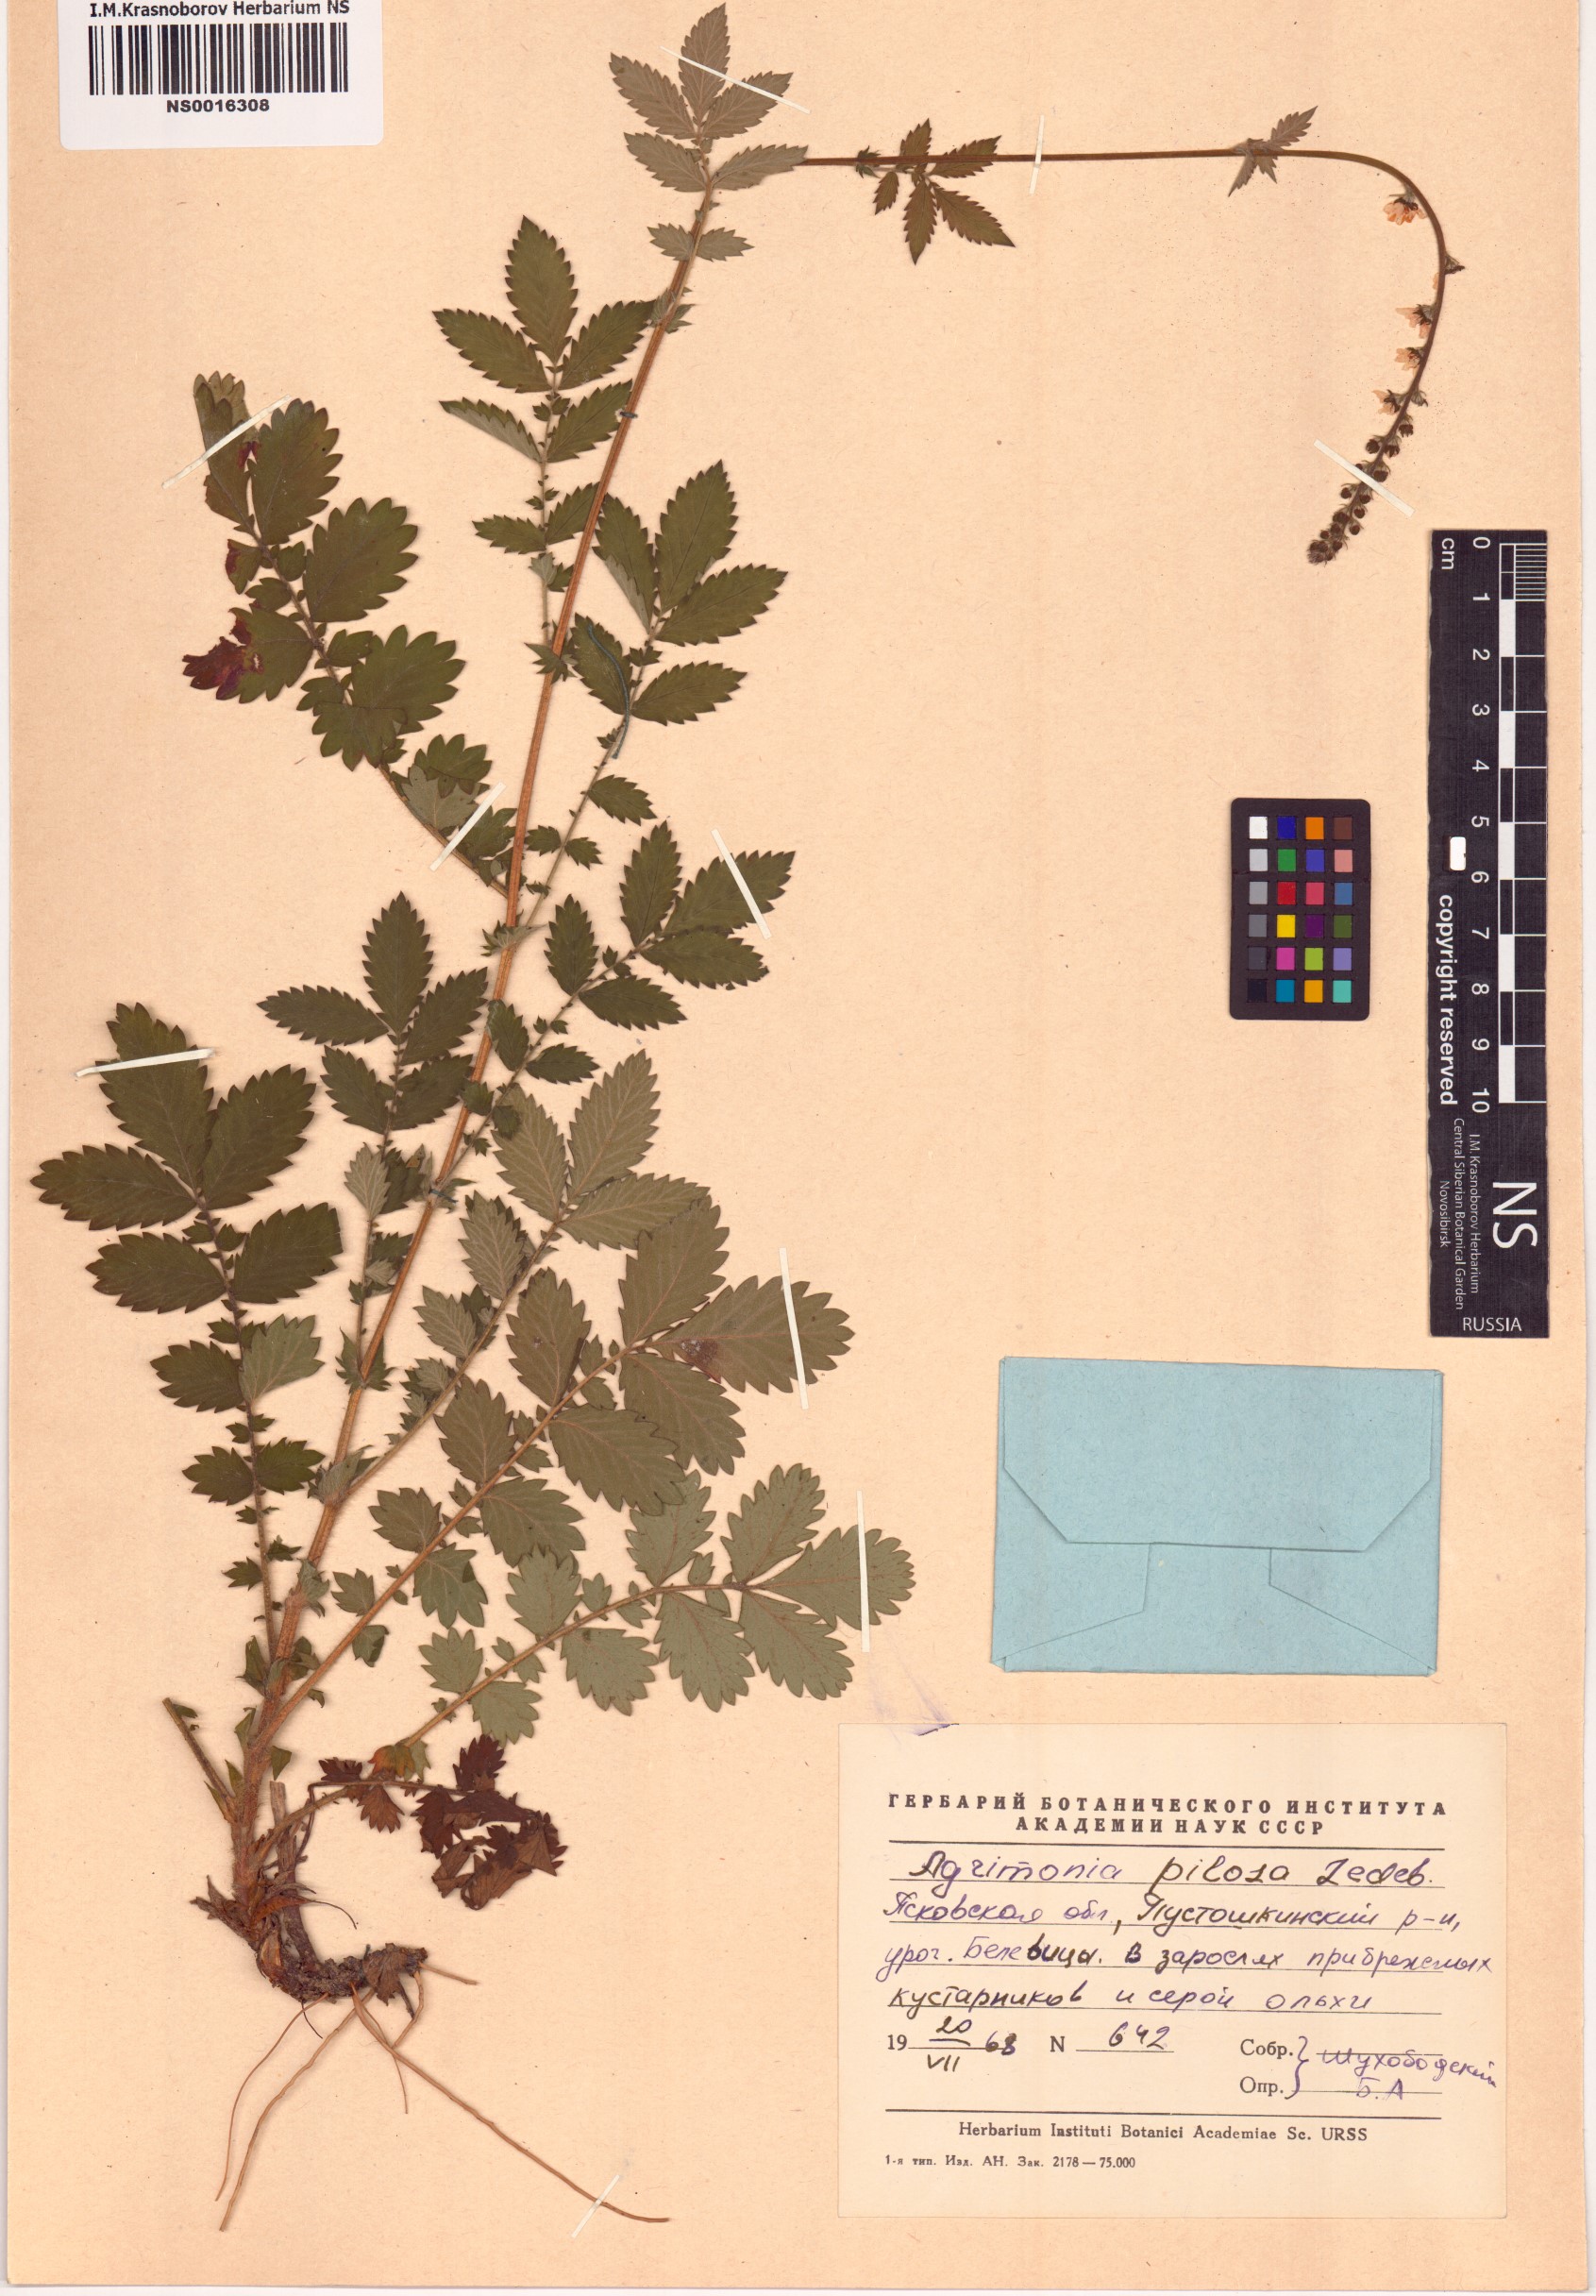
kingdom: Plantae
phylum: Tracheophyta
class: Magnoliopsida
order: Rosales
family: Rosaceae
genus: Agrimonia
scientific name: Agrimonia pilosa
